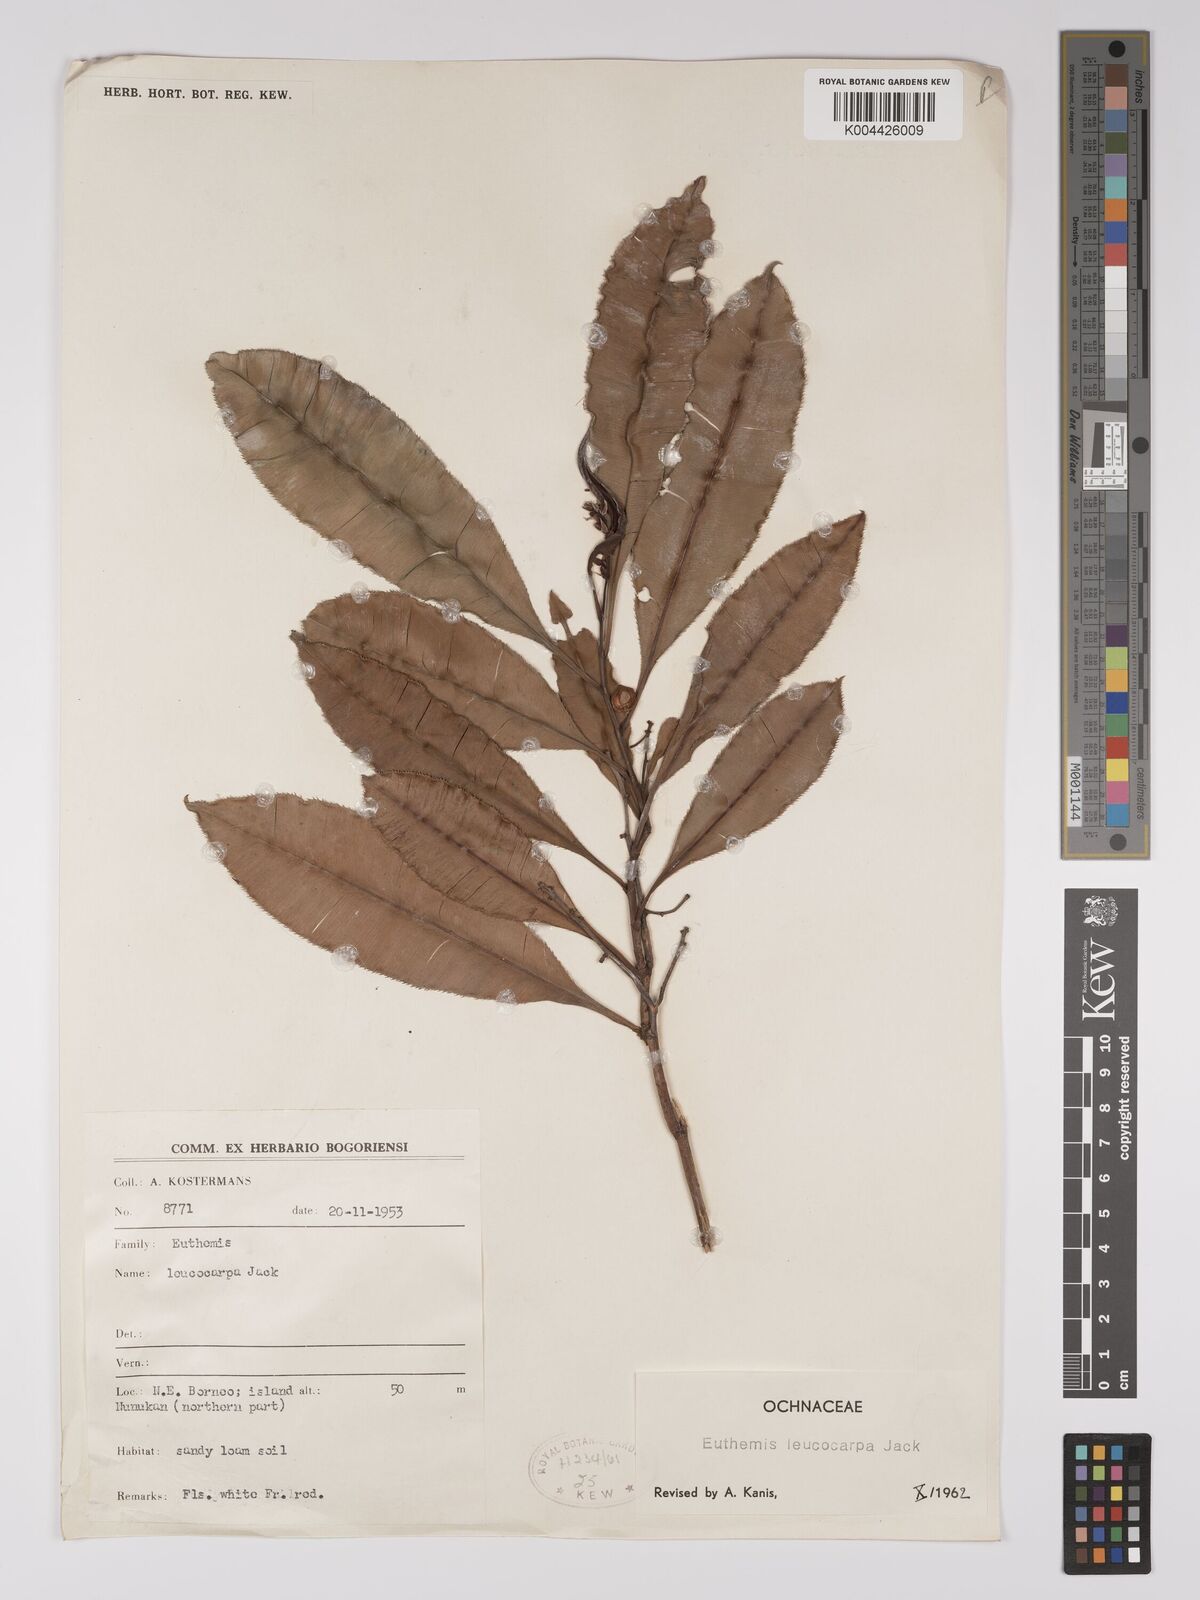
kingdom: Plantae
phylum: Tracheophyta
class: Magnoliopsida
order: Malpighiales
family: Ochnaceae
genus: Euthemis
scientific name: Euthemis leucocarpa
